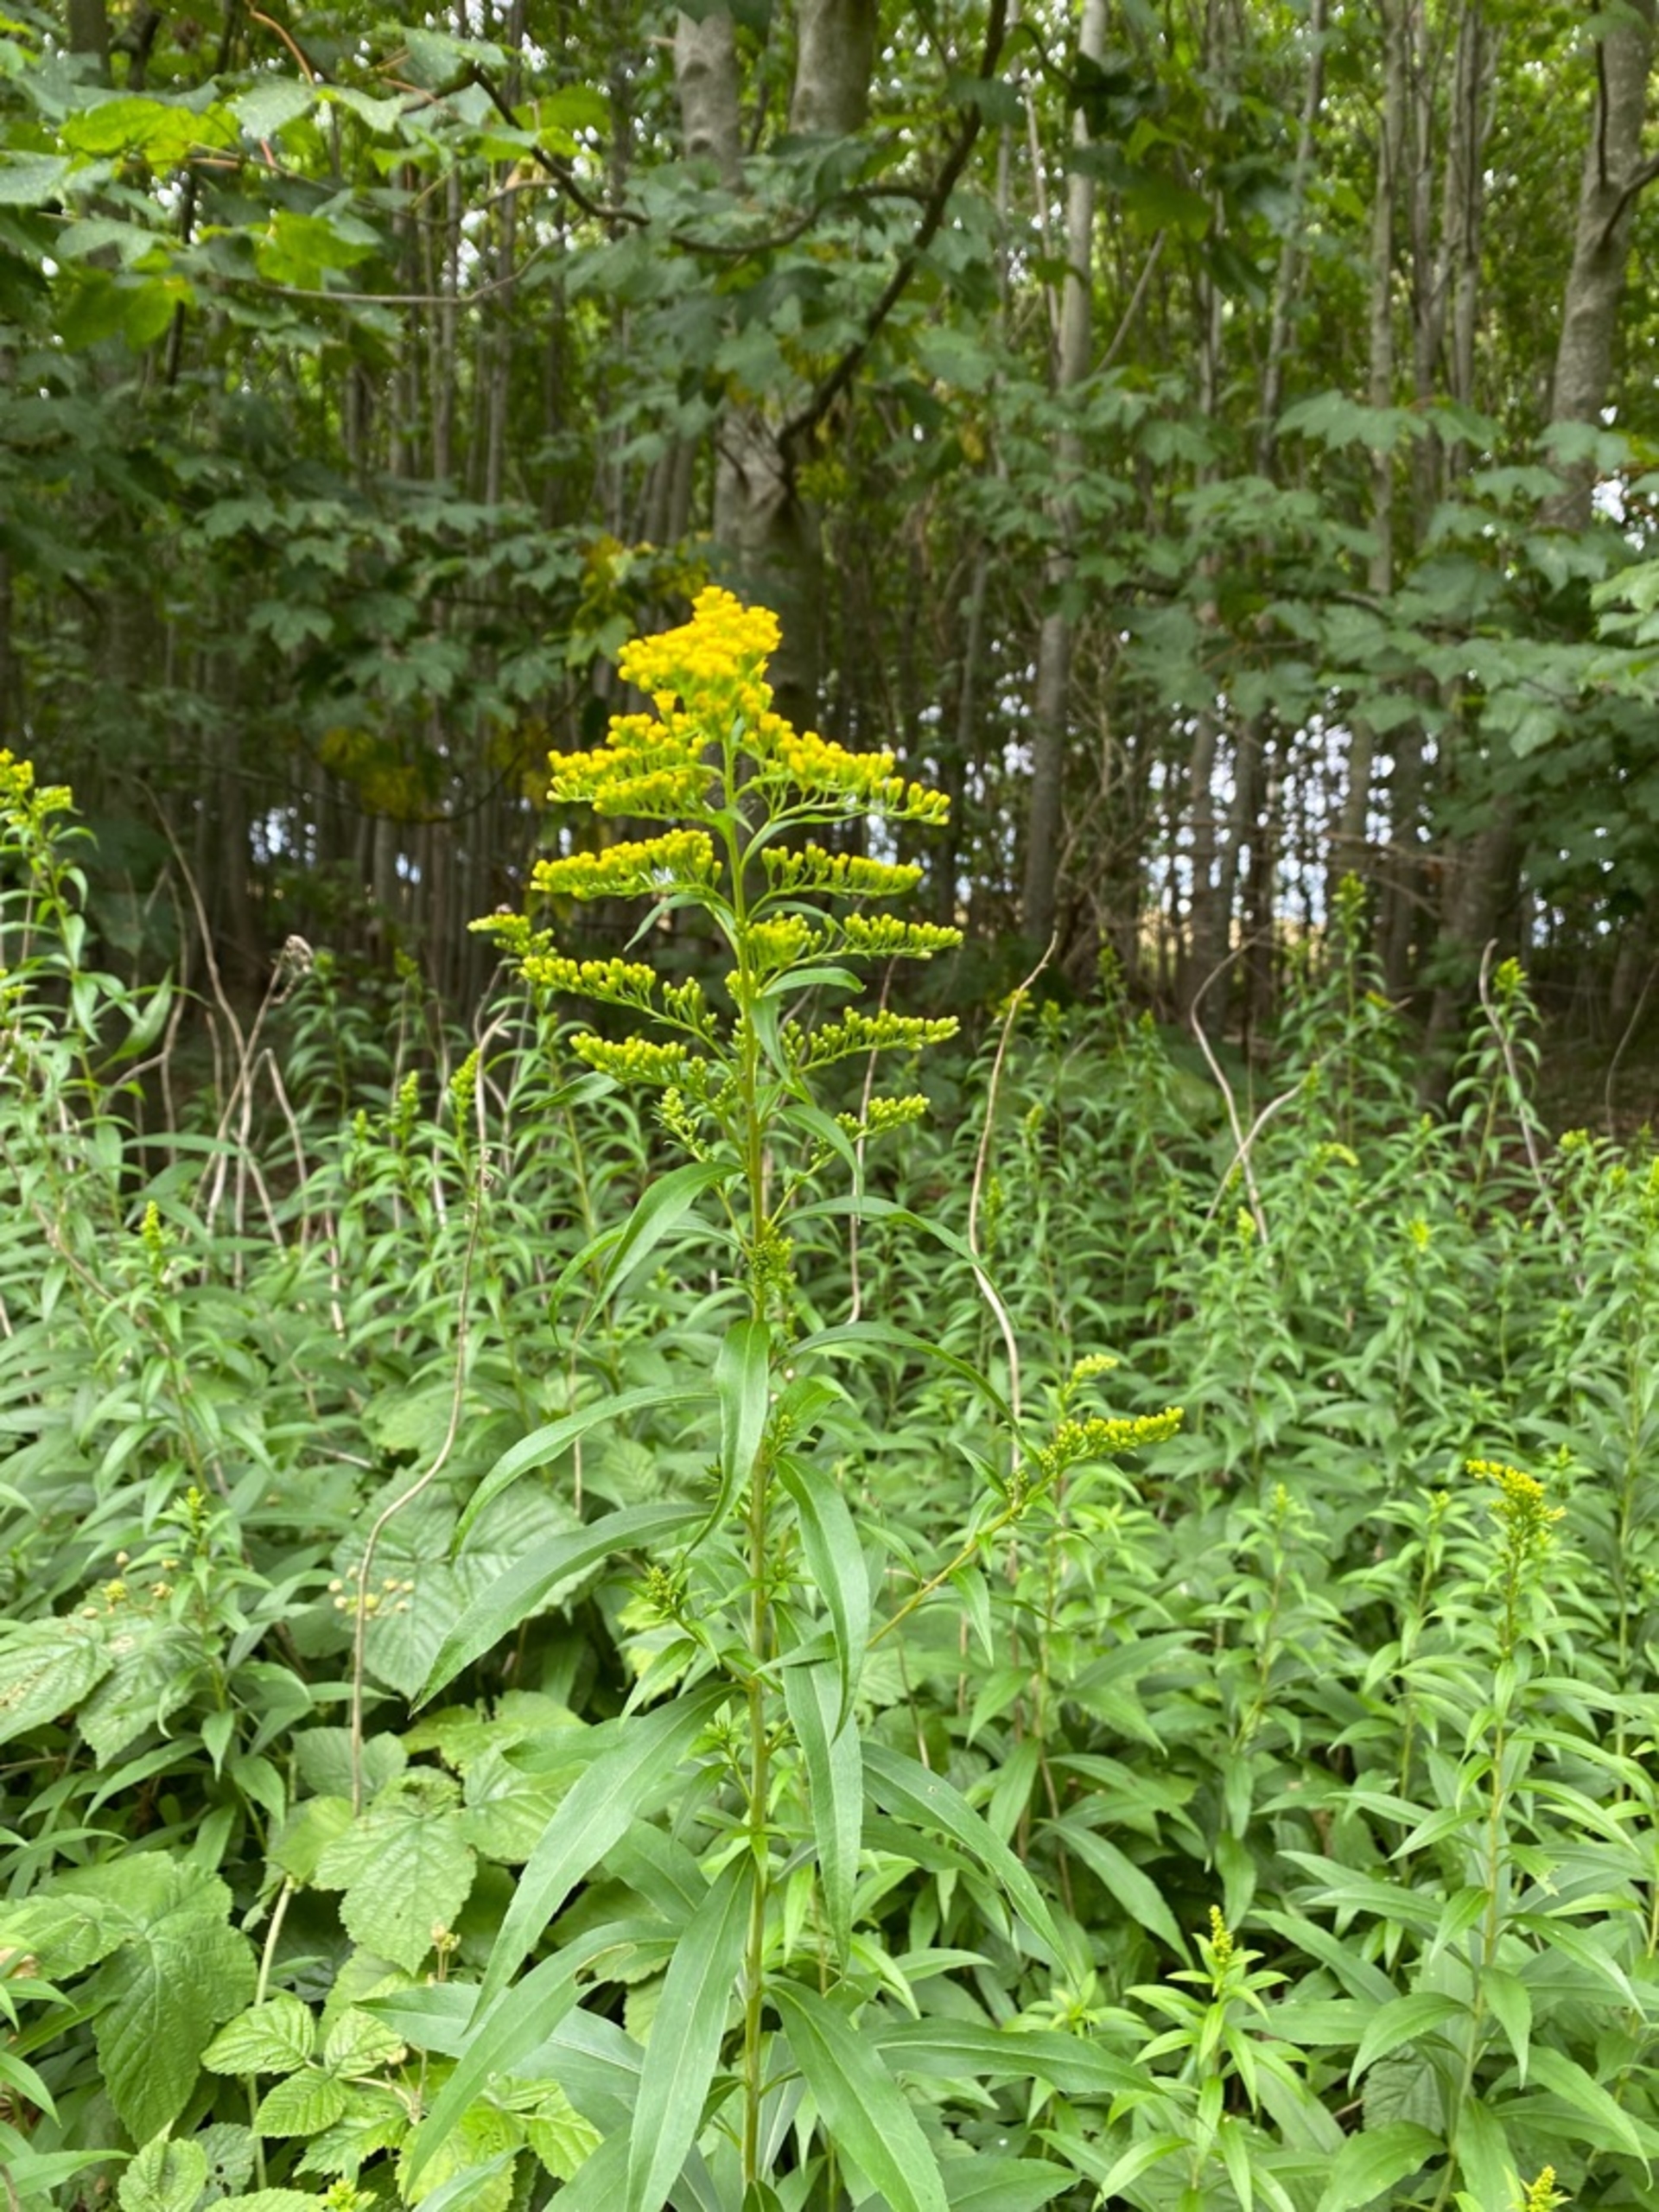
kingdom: Plantae
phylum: Tracheophyta
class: Magnoliopsida
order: Asterales
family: Asteraceae
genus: Solidago
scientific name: Solidago gigantea
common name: Sildig gyldenris
